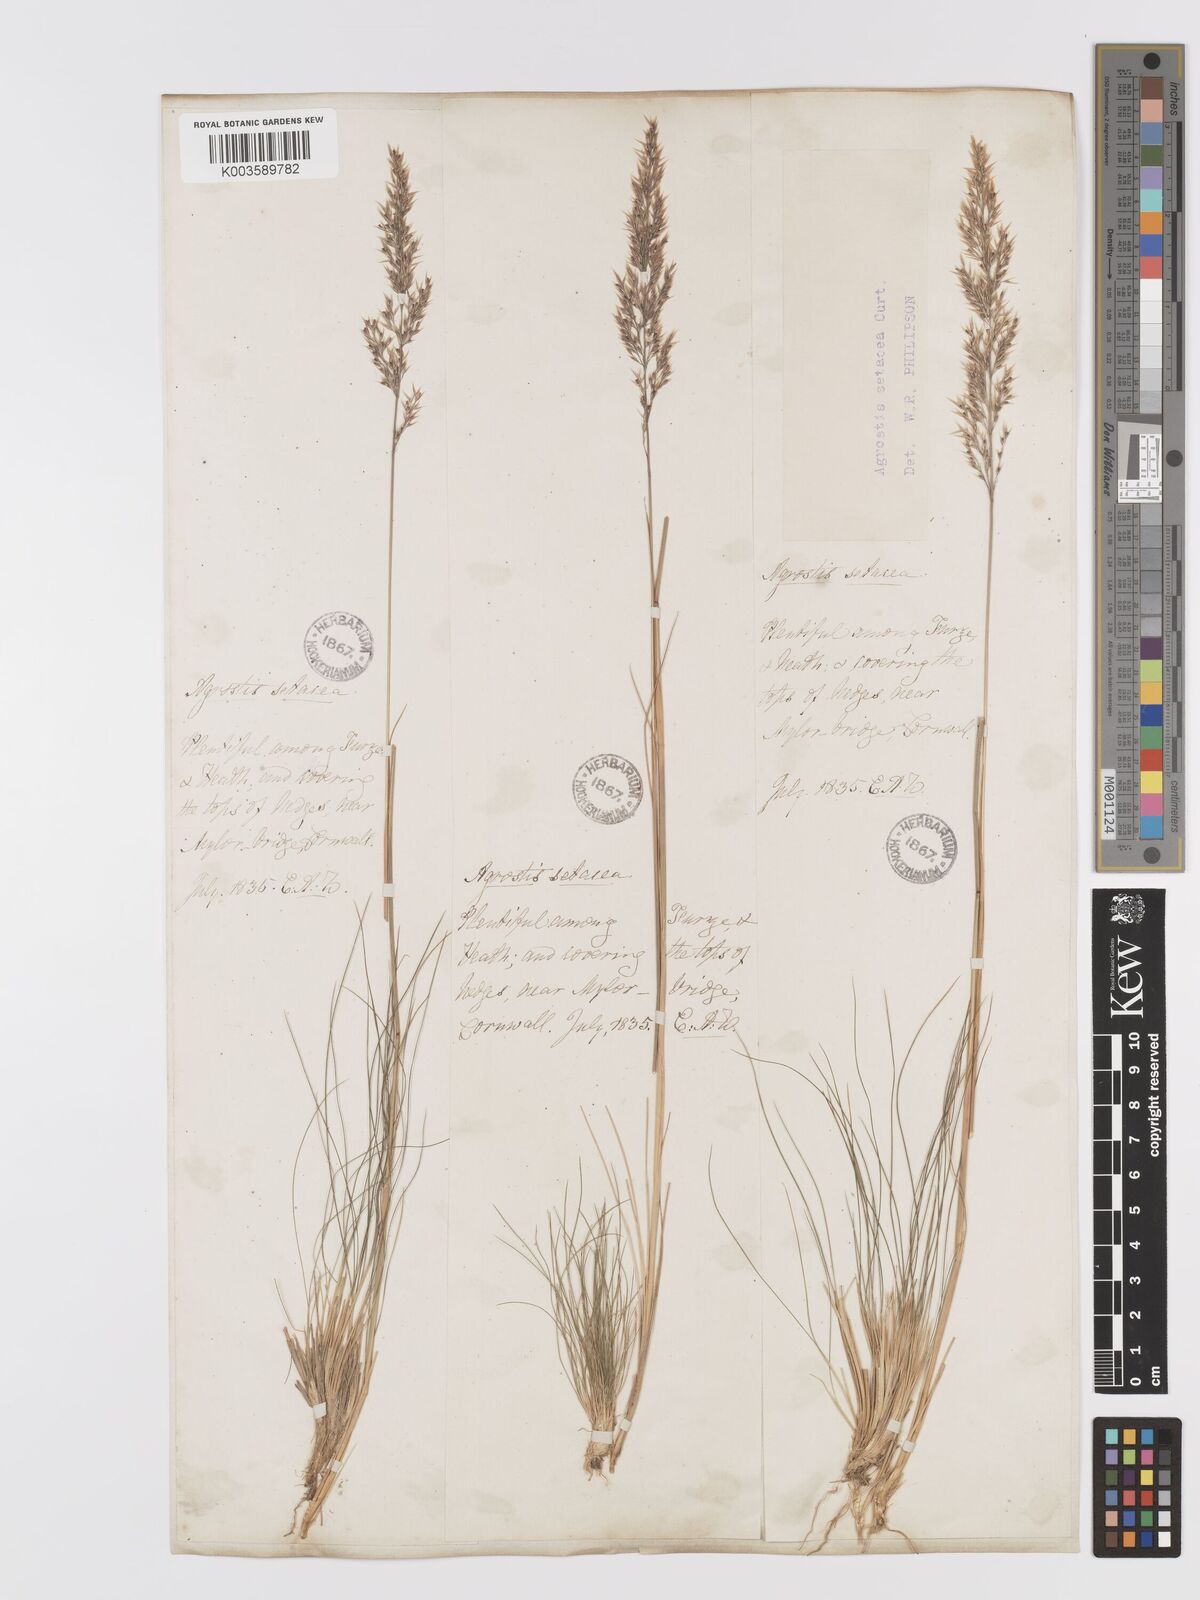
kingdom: Plantae
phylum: Tracheophyta
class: Liliopsida
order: Poales
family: Poaceae
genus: Alpagrostis
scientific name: Alpagrostis setacea
